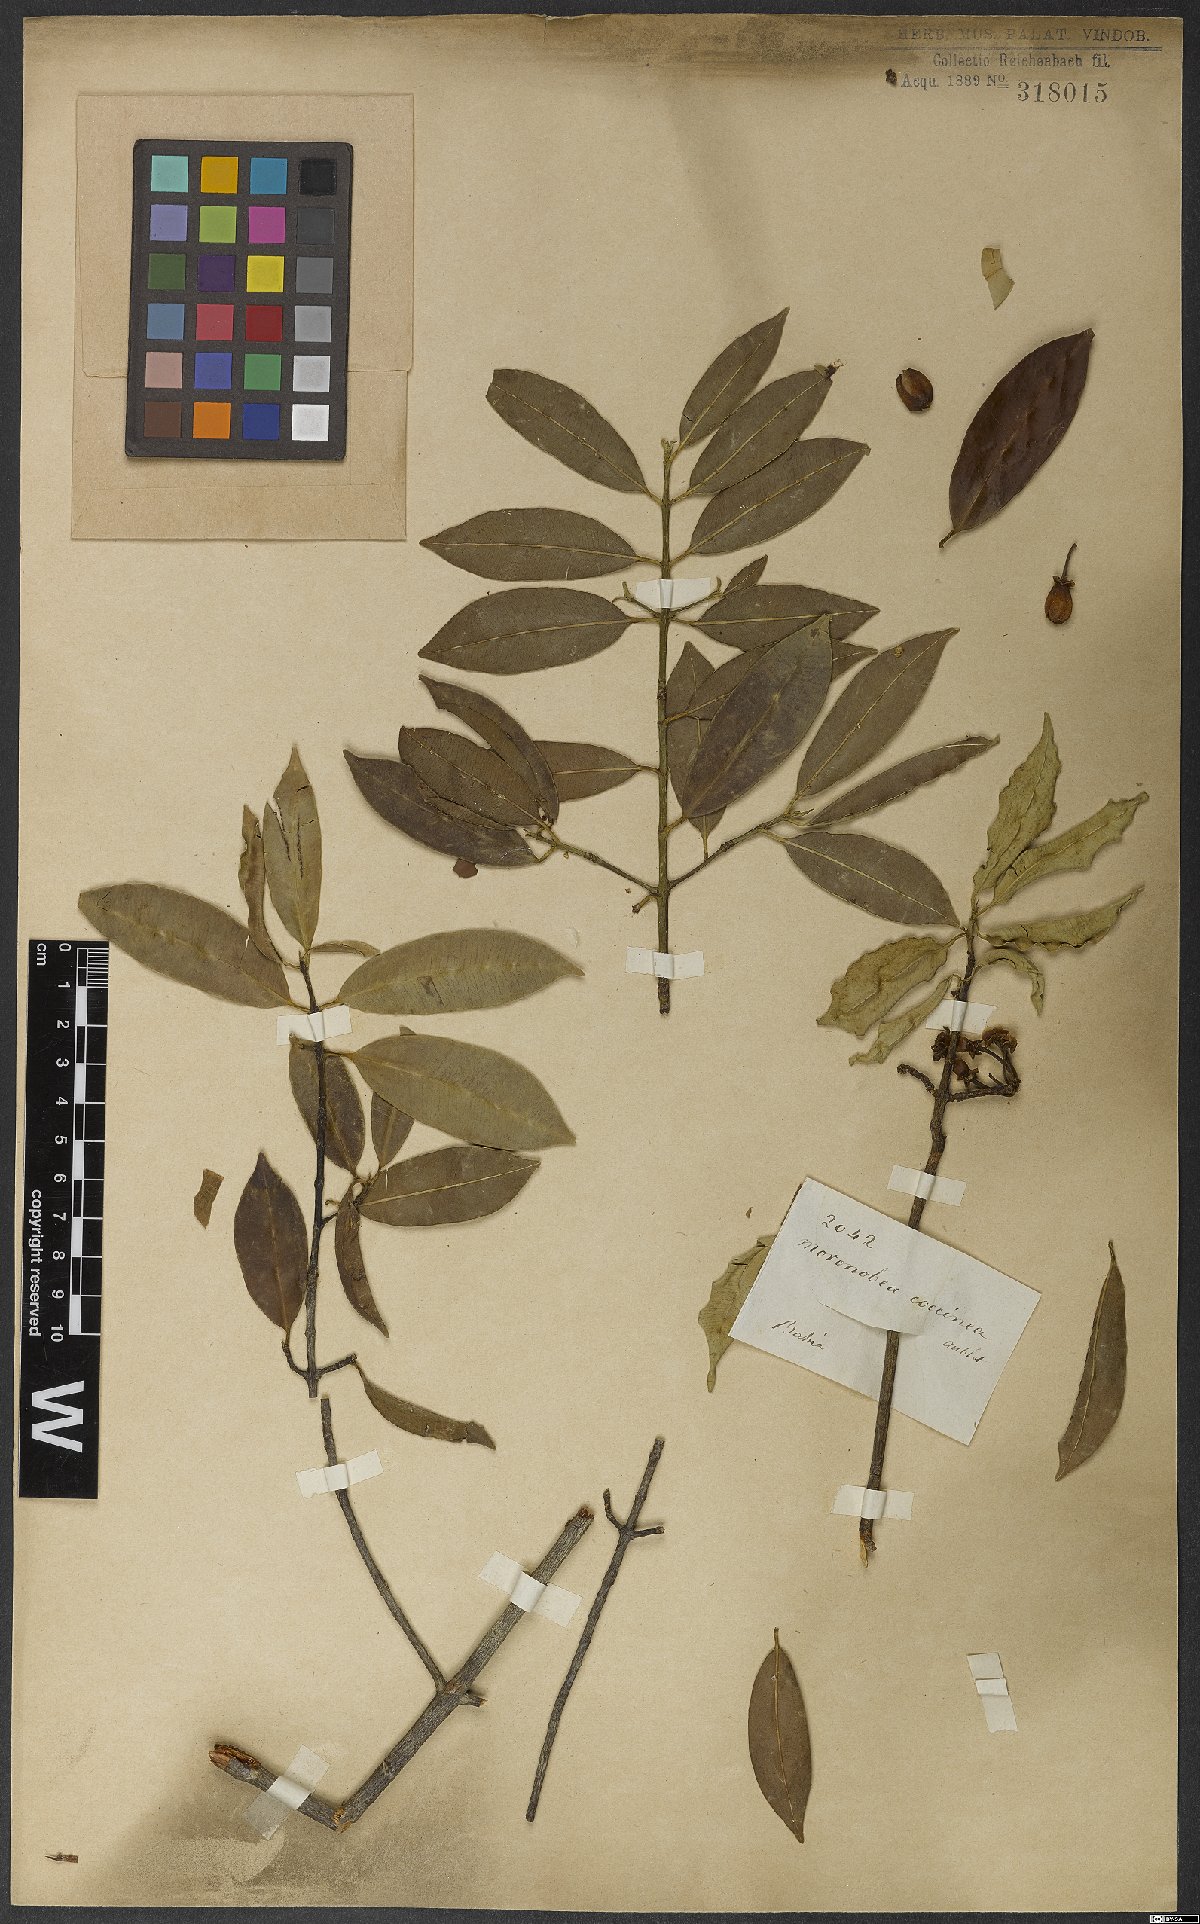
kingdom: Plantae
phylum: Tracheophyta
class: Magnoliopsida
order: Malpighiales
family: Clusiaceae
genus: Moronobea
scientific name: Moronobea coccinea
